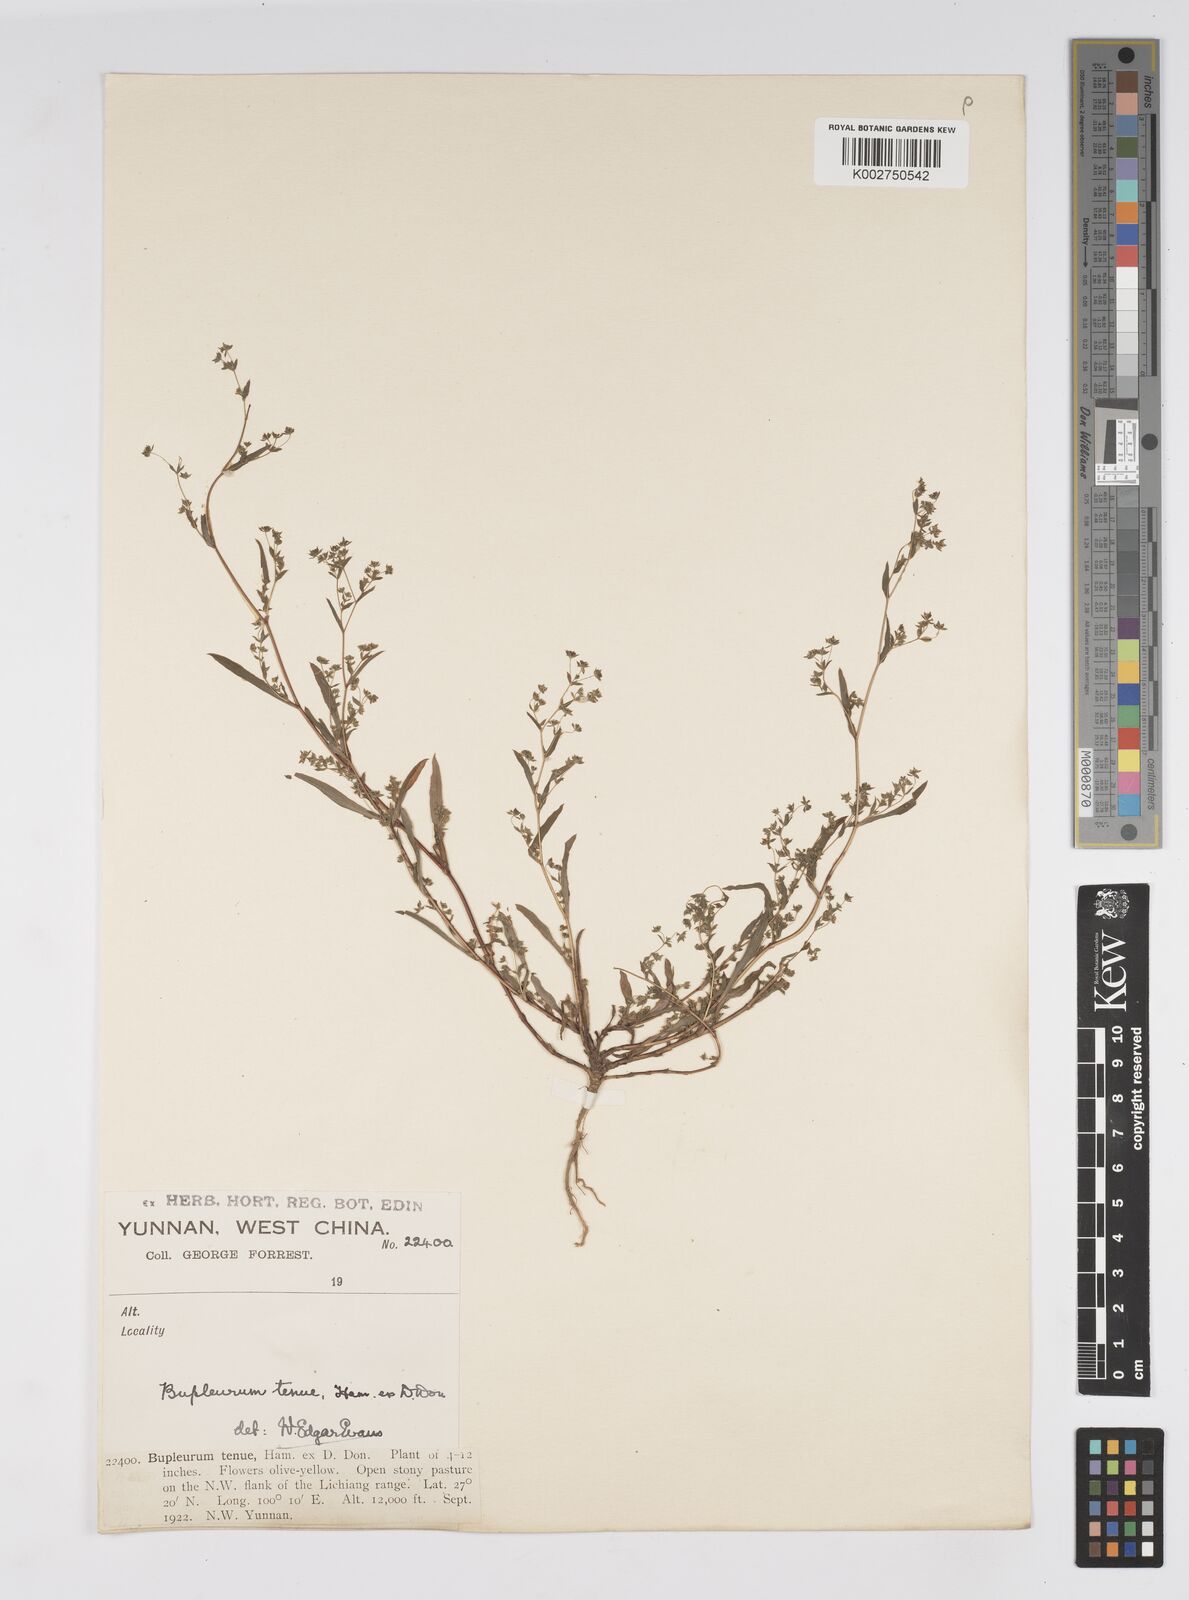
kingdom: Plantae
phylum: Tracheophyta
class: Magnoliopsida
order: Apiales
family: Apiaceae
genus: Bupleurum
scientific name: Bupleurum hamiltonii
